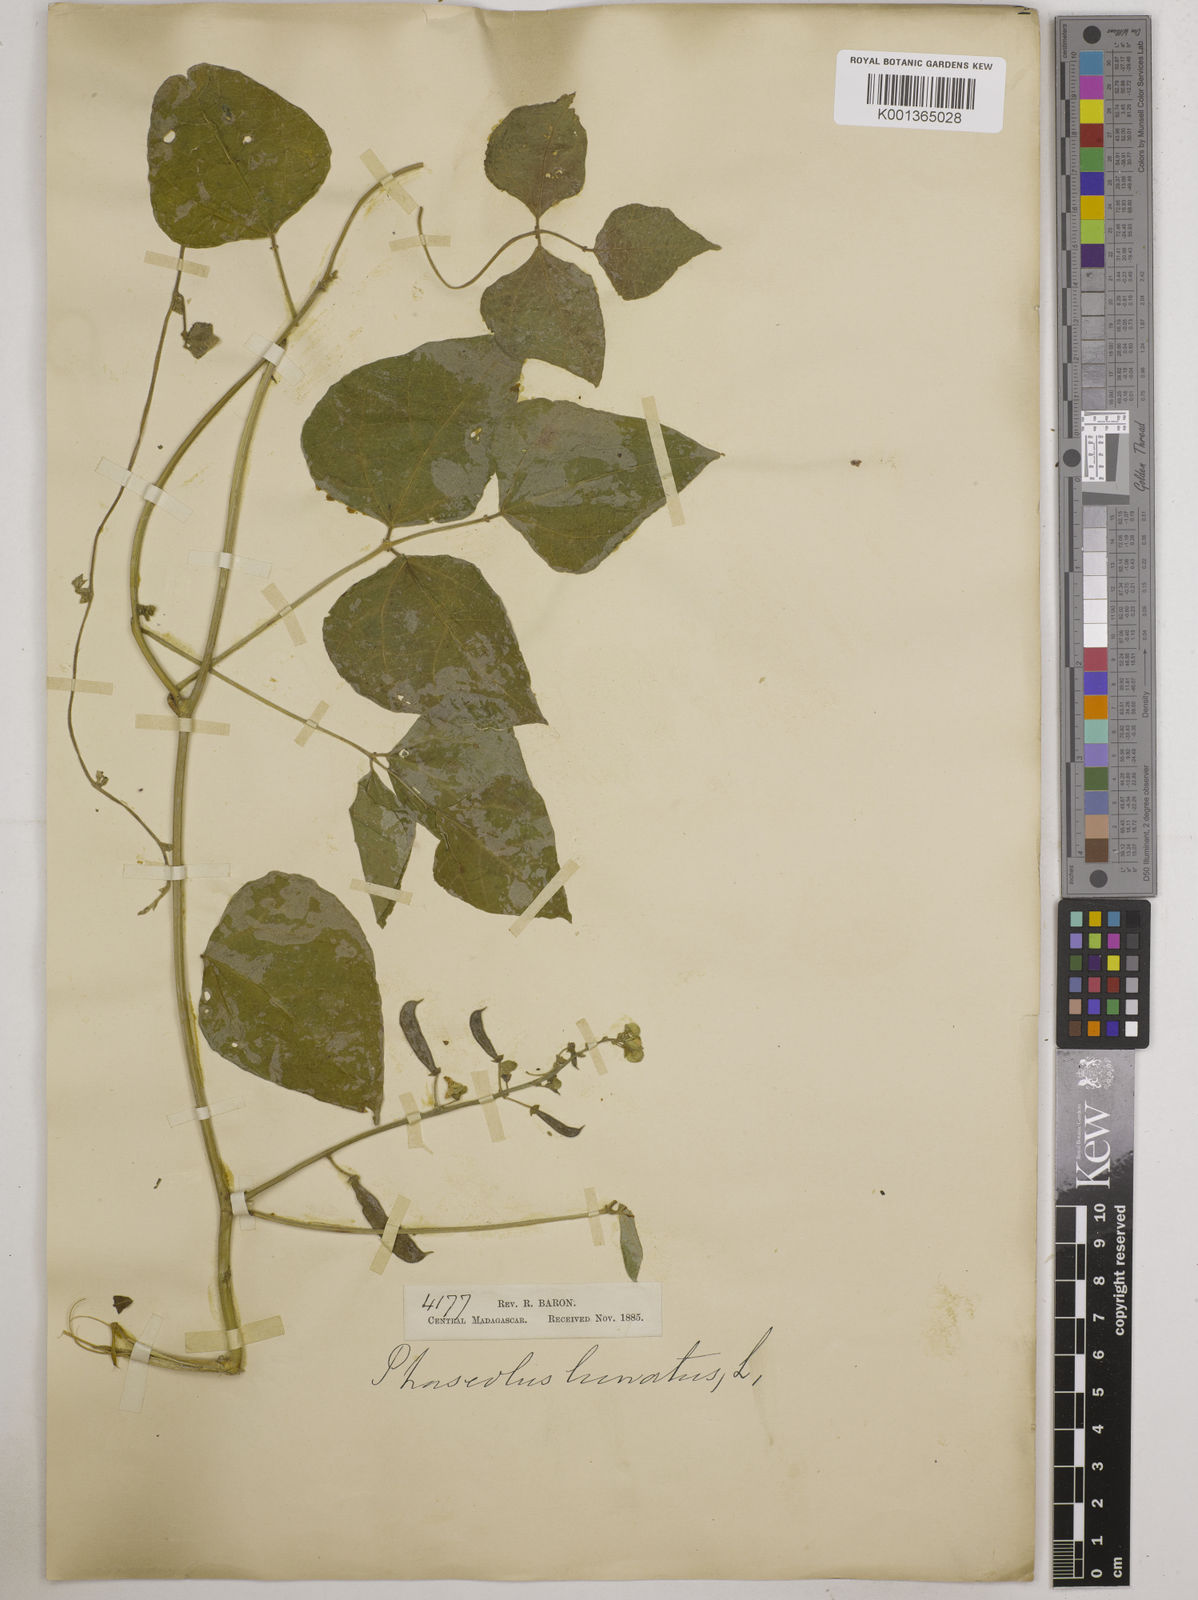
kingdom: Plantae
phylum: Tracheophyta
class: Magnoliopsida
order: Fabales
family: Fabaceae
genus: Phaseolus
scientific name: Phaseolus lunatus
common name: Sieva bean
